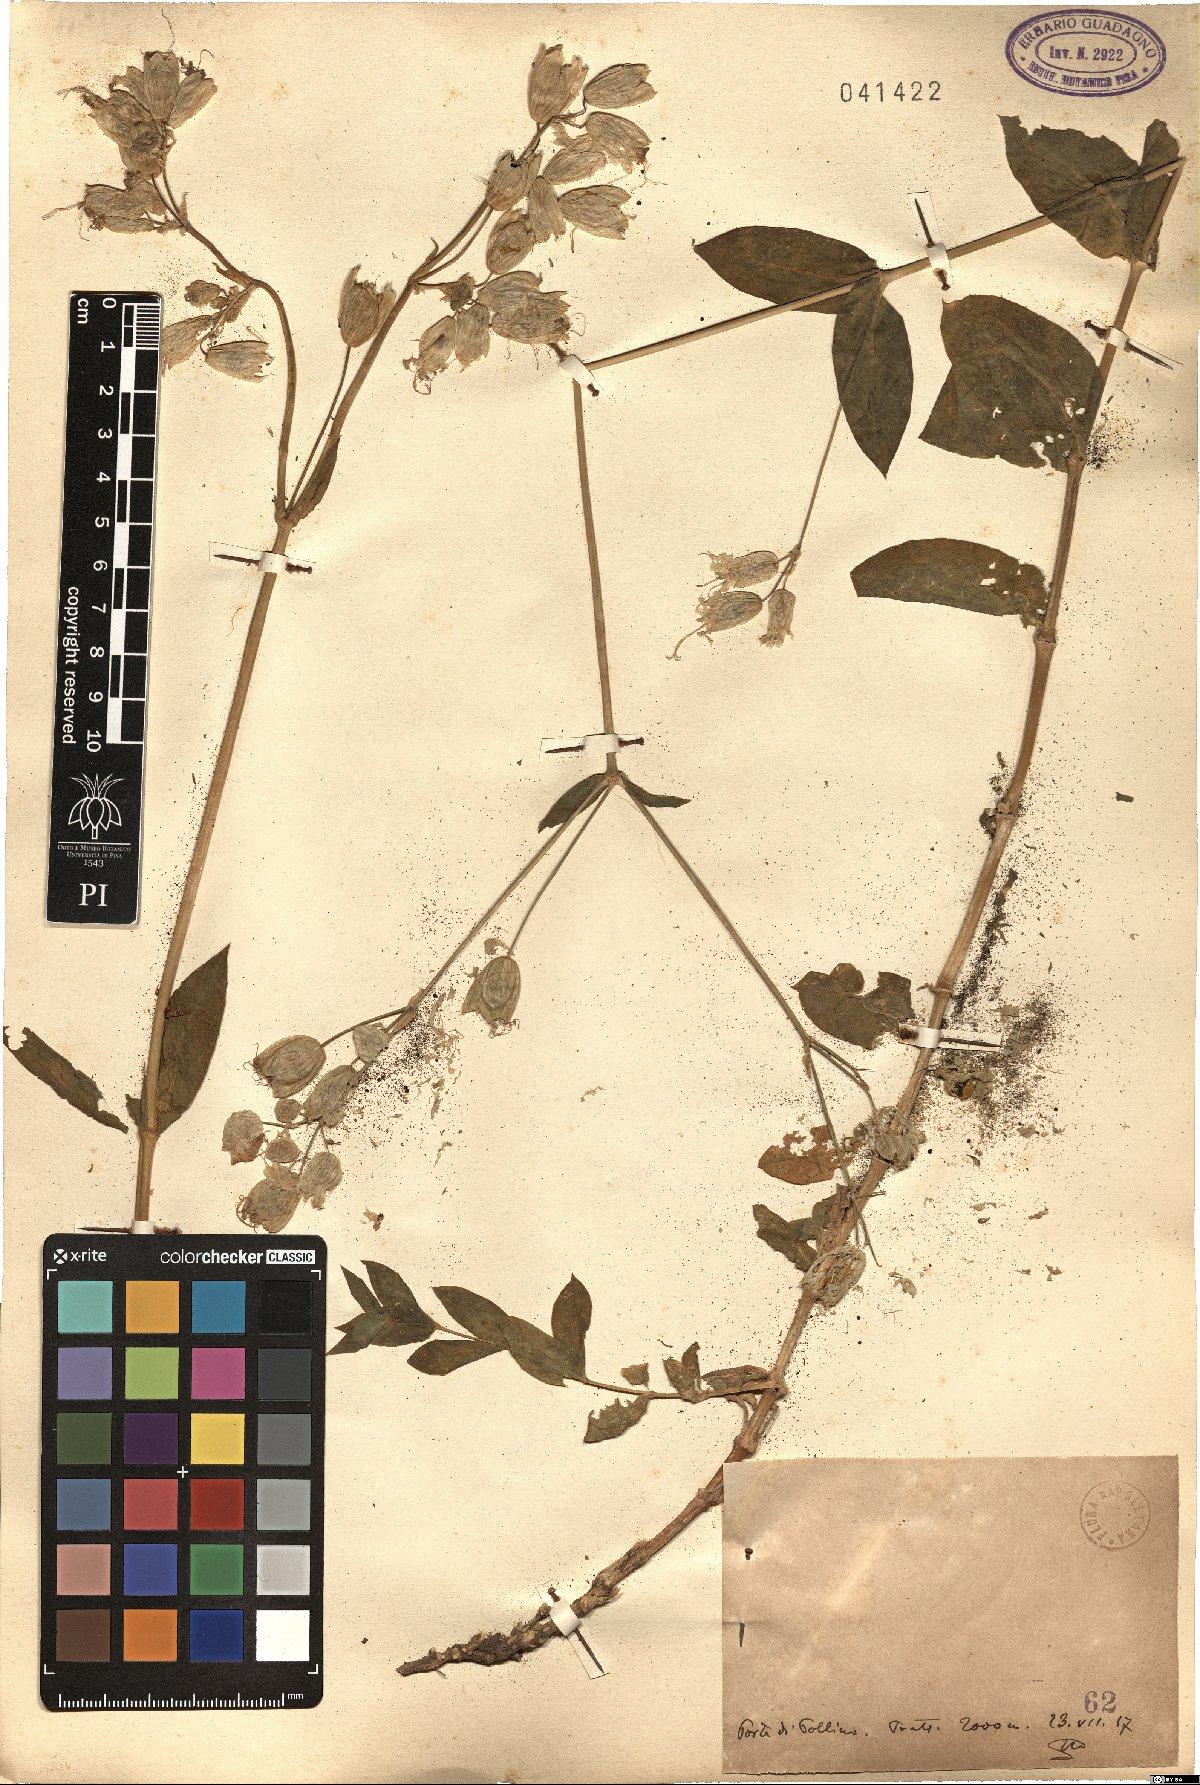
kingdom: Plantae
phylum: Tracheophyta
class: Magnoliopsida
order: Caryophyllales
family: Caryophyllaceae
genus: Silene
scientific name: Silene
